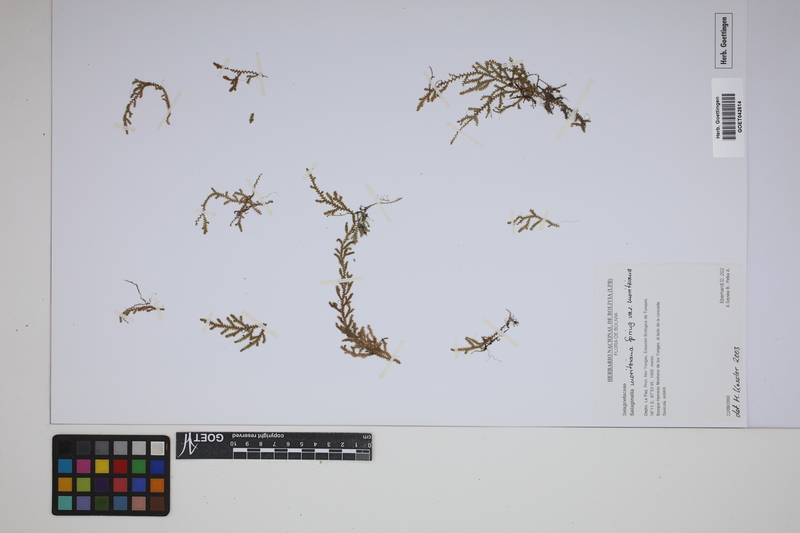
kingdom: Plantae
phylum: Tracheophyta
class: Lycopodiopsida
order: Selaginellales
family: Selaginellaceae
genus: Selaginella
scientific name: Selaginella moritziana
